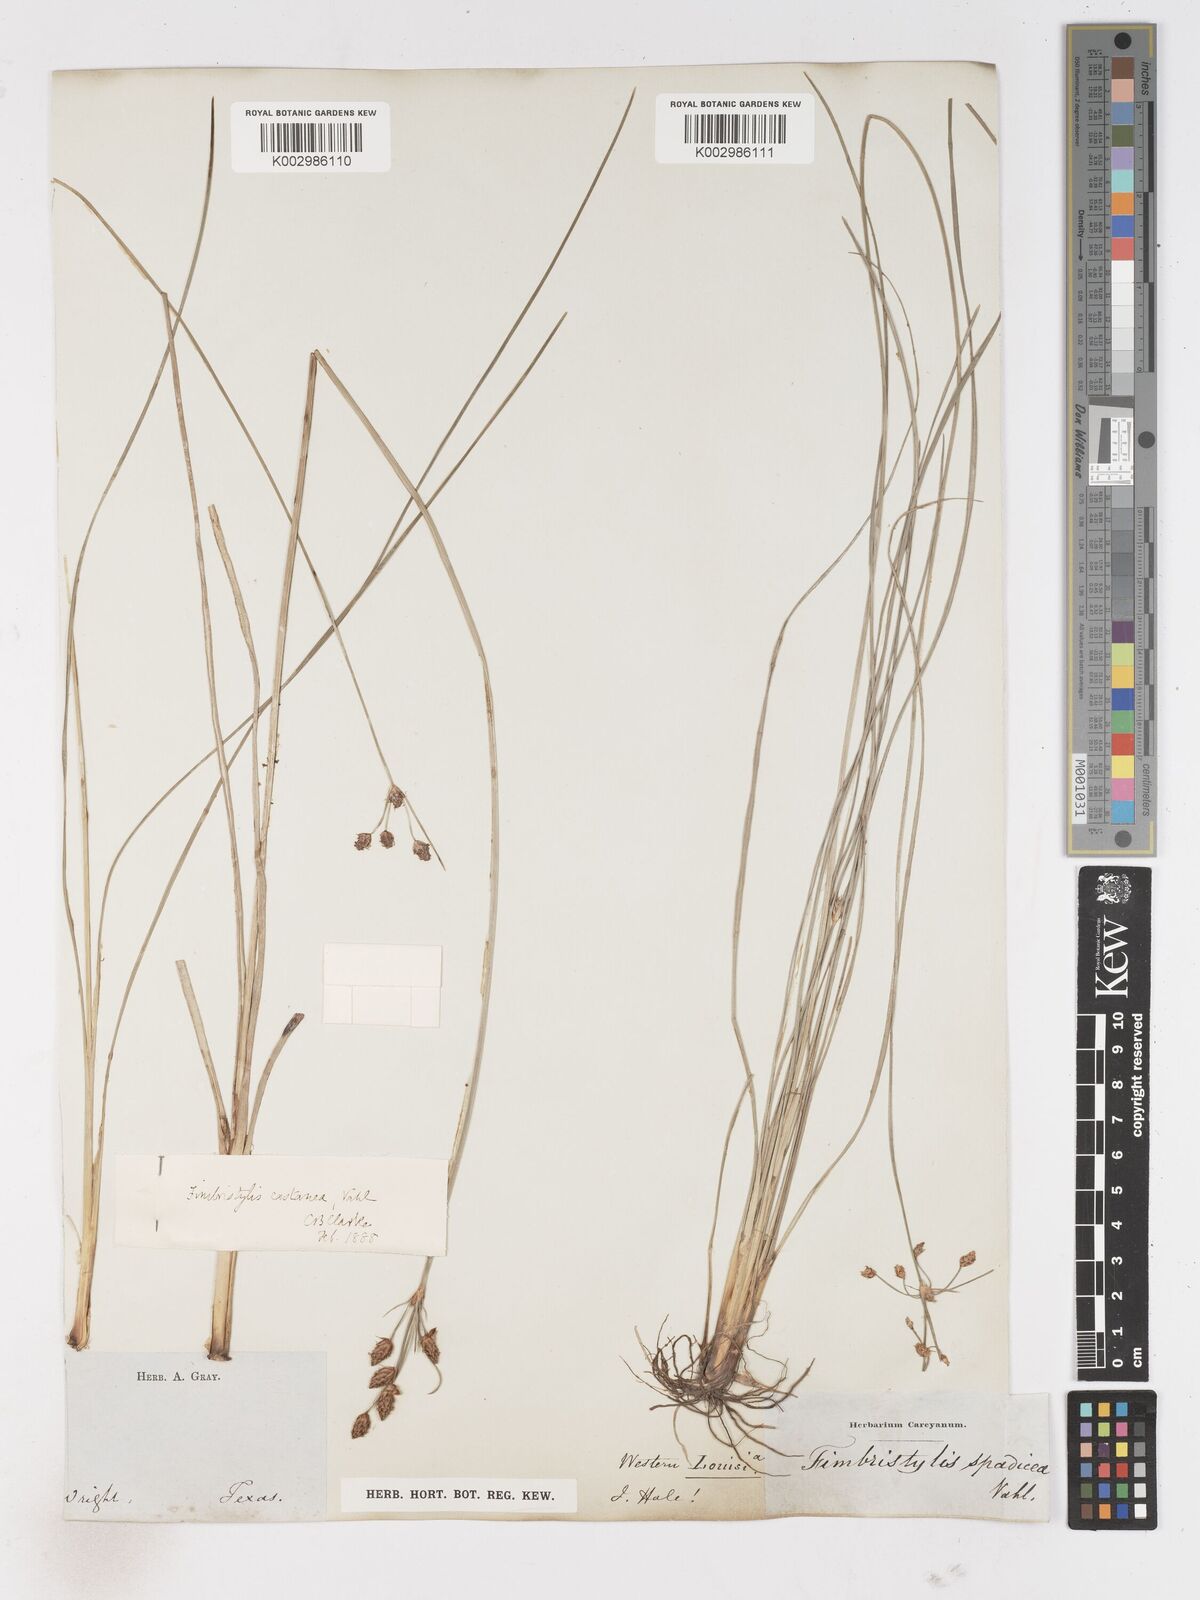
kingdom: Plantae
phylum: Tracheophyta
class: Liliopsida
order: Poales
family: Cyperaceae
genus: Fimbristylis
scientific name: Fimbristylis spadicea
